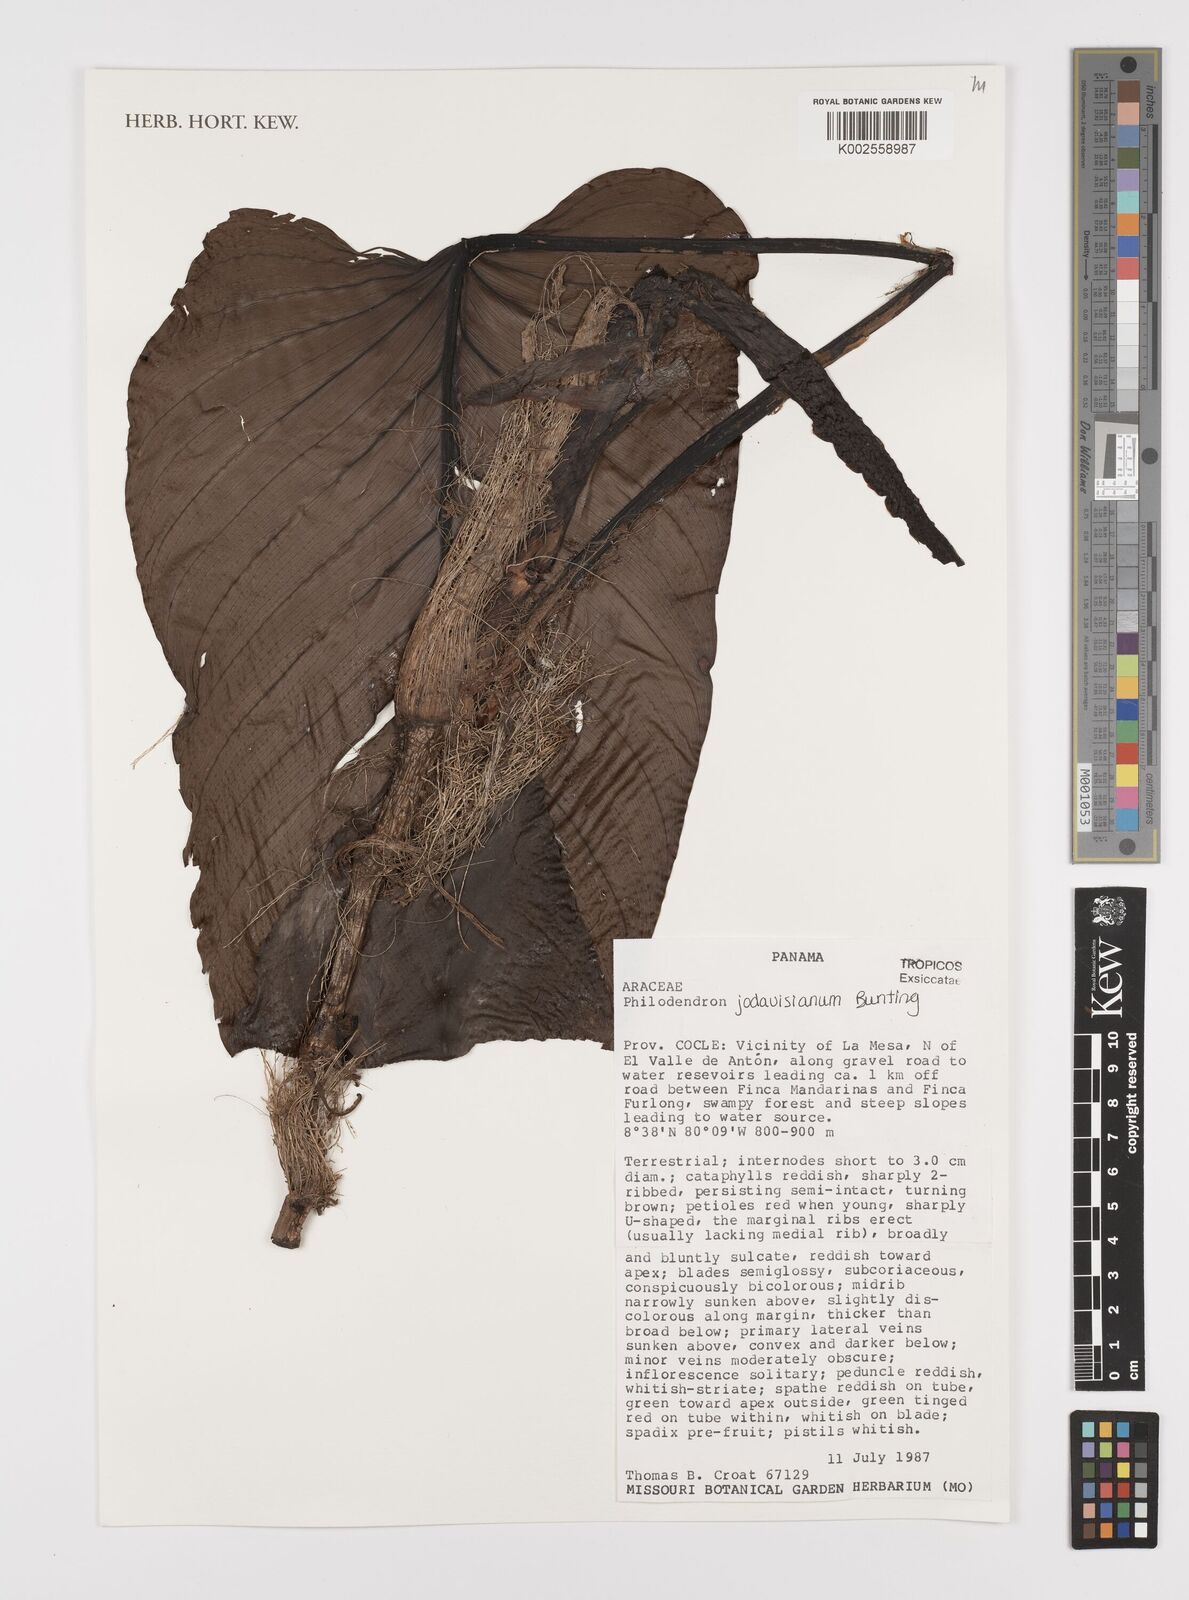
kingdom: Plantae
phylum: Tracheophyta
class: Liliopsida
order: Alismatales
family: Araceae
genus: Philodendron
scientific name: Philodendron jodavisianum
